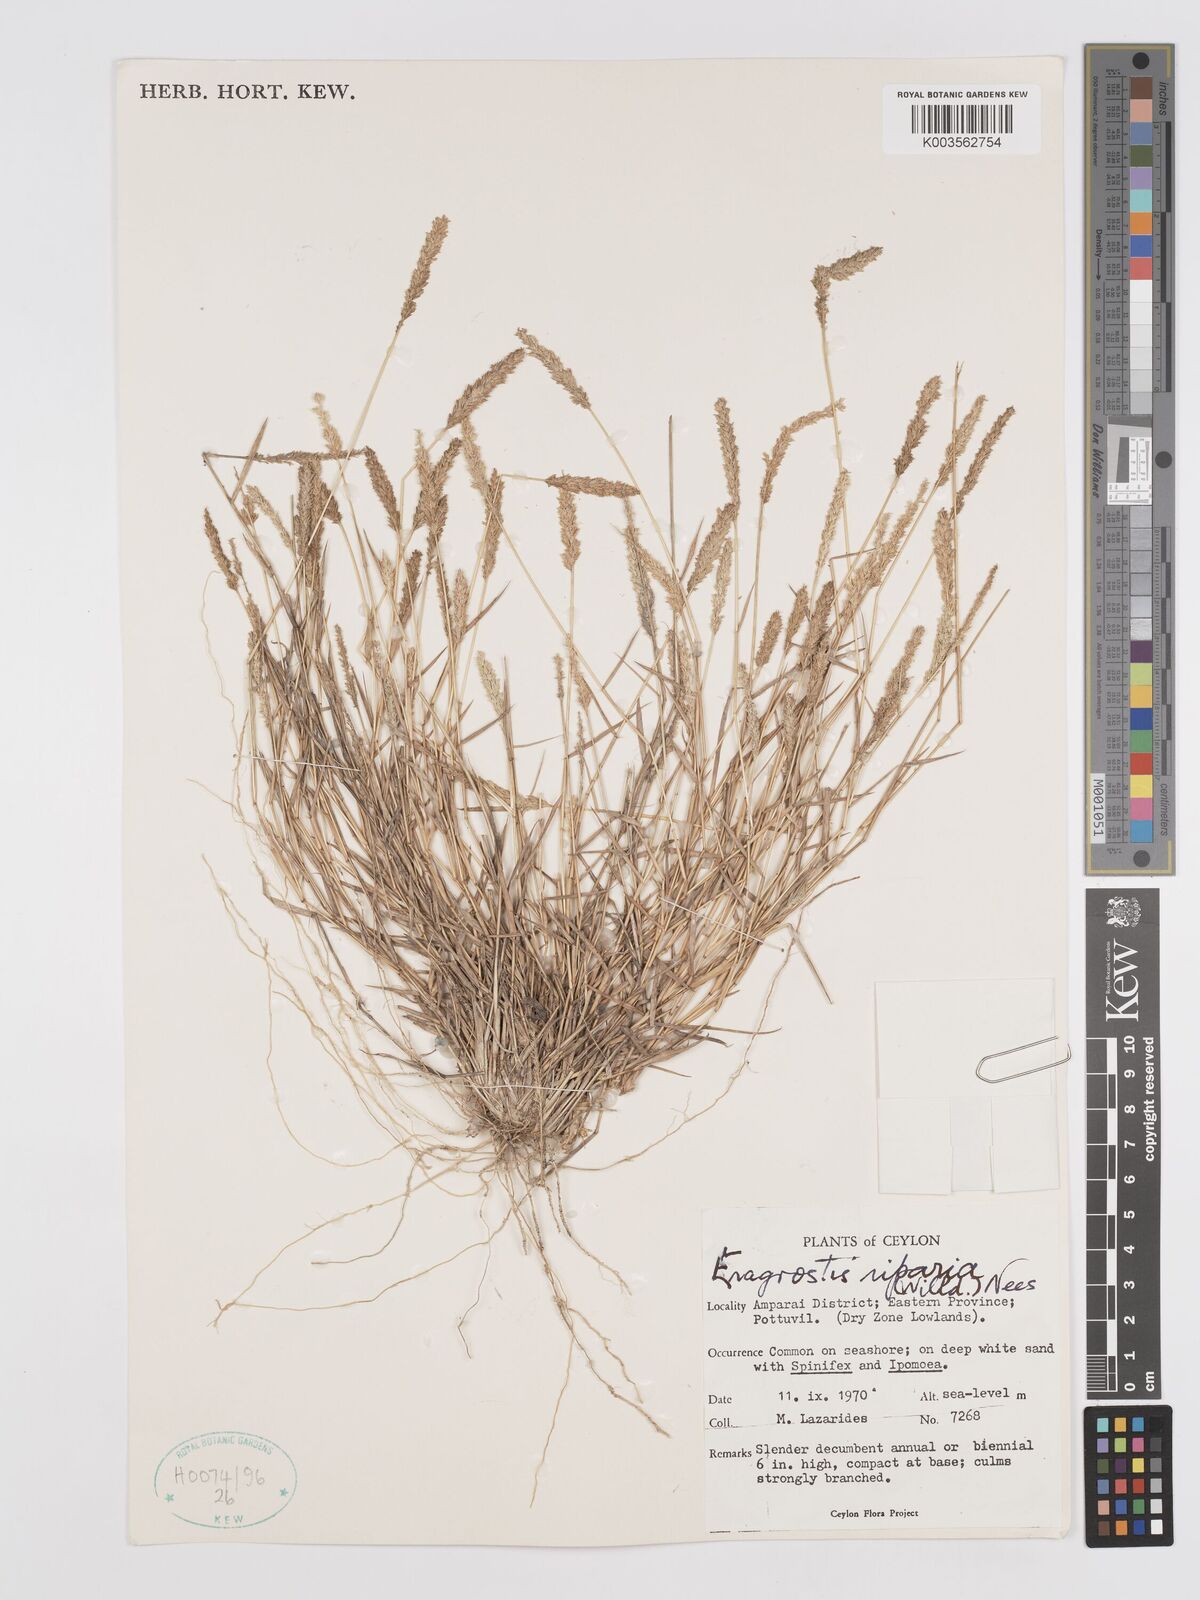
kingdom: Plantae
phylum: Tracheophyta
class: Liliopsida
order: Poales
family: Poaceae
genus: Eragrostis
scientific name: Eragrostis riparia
